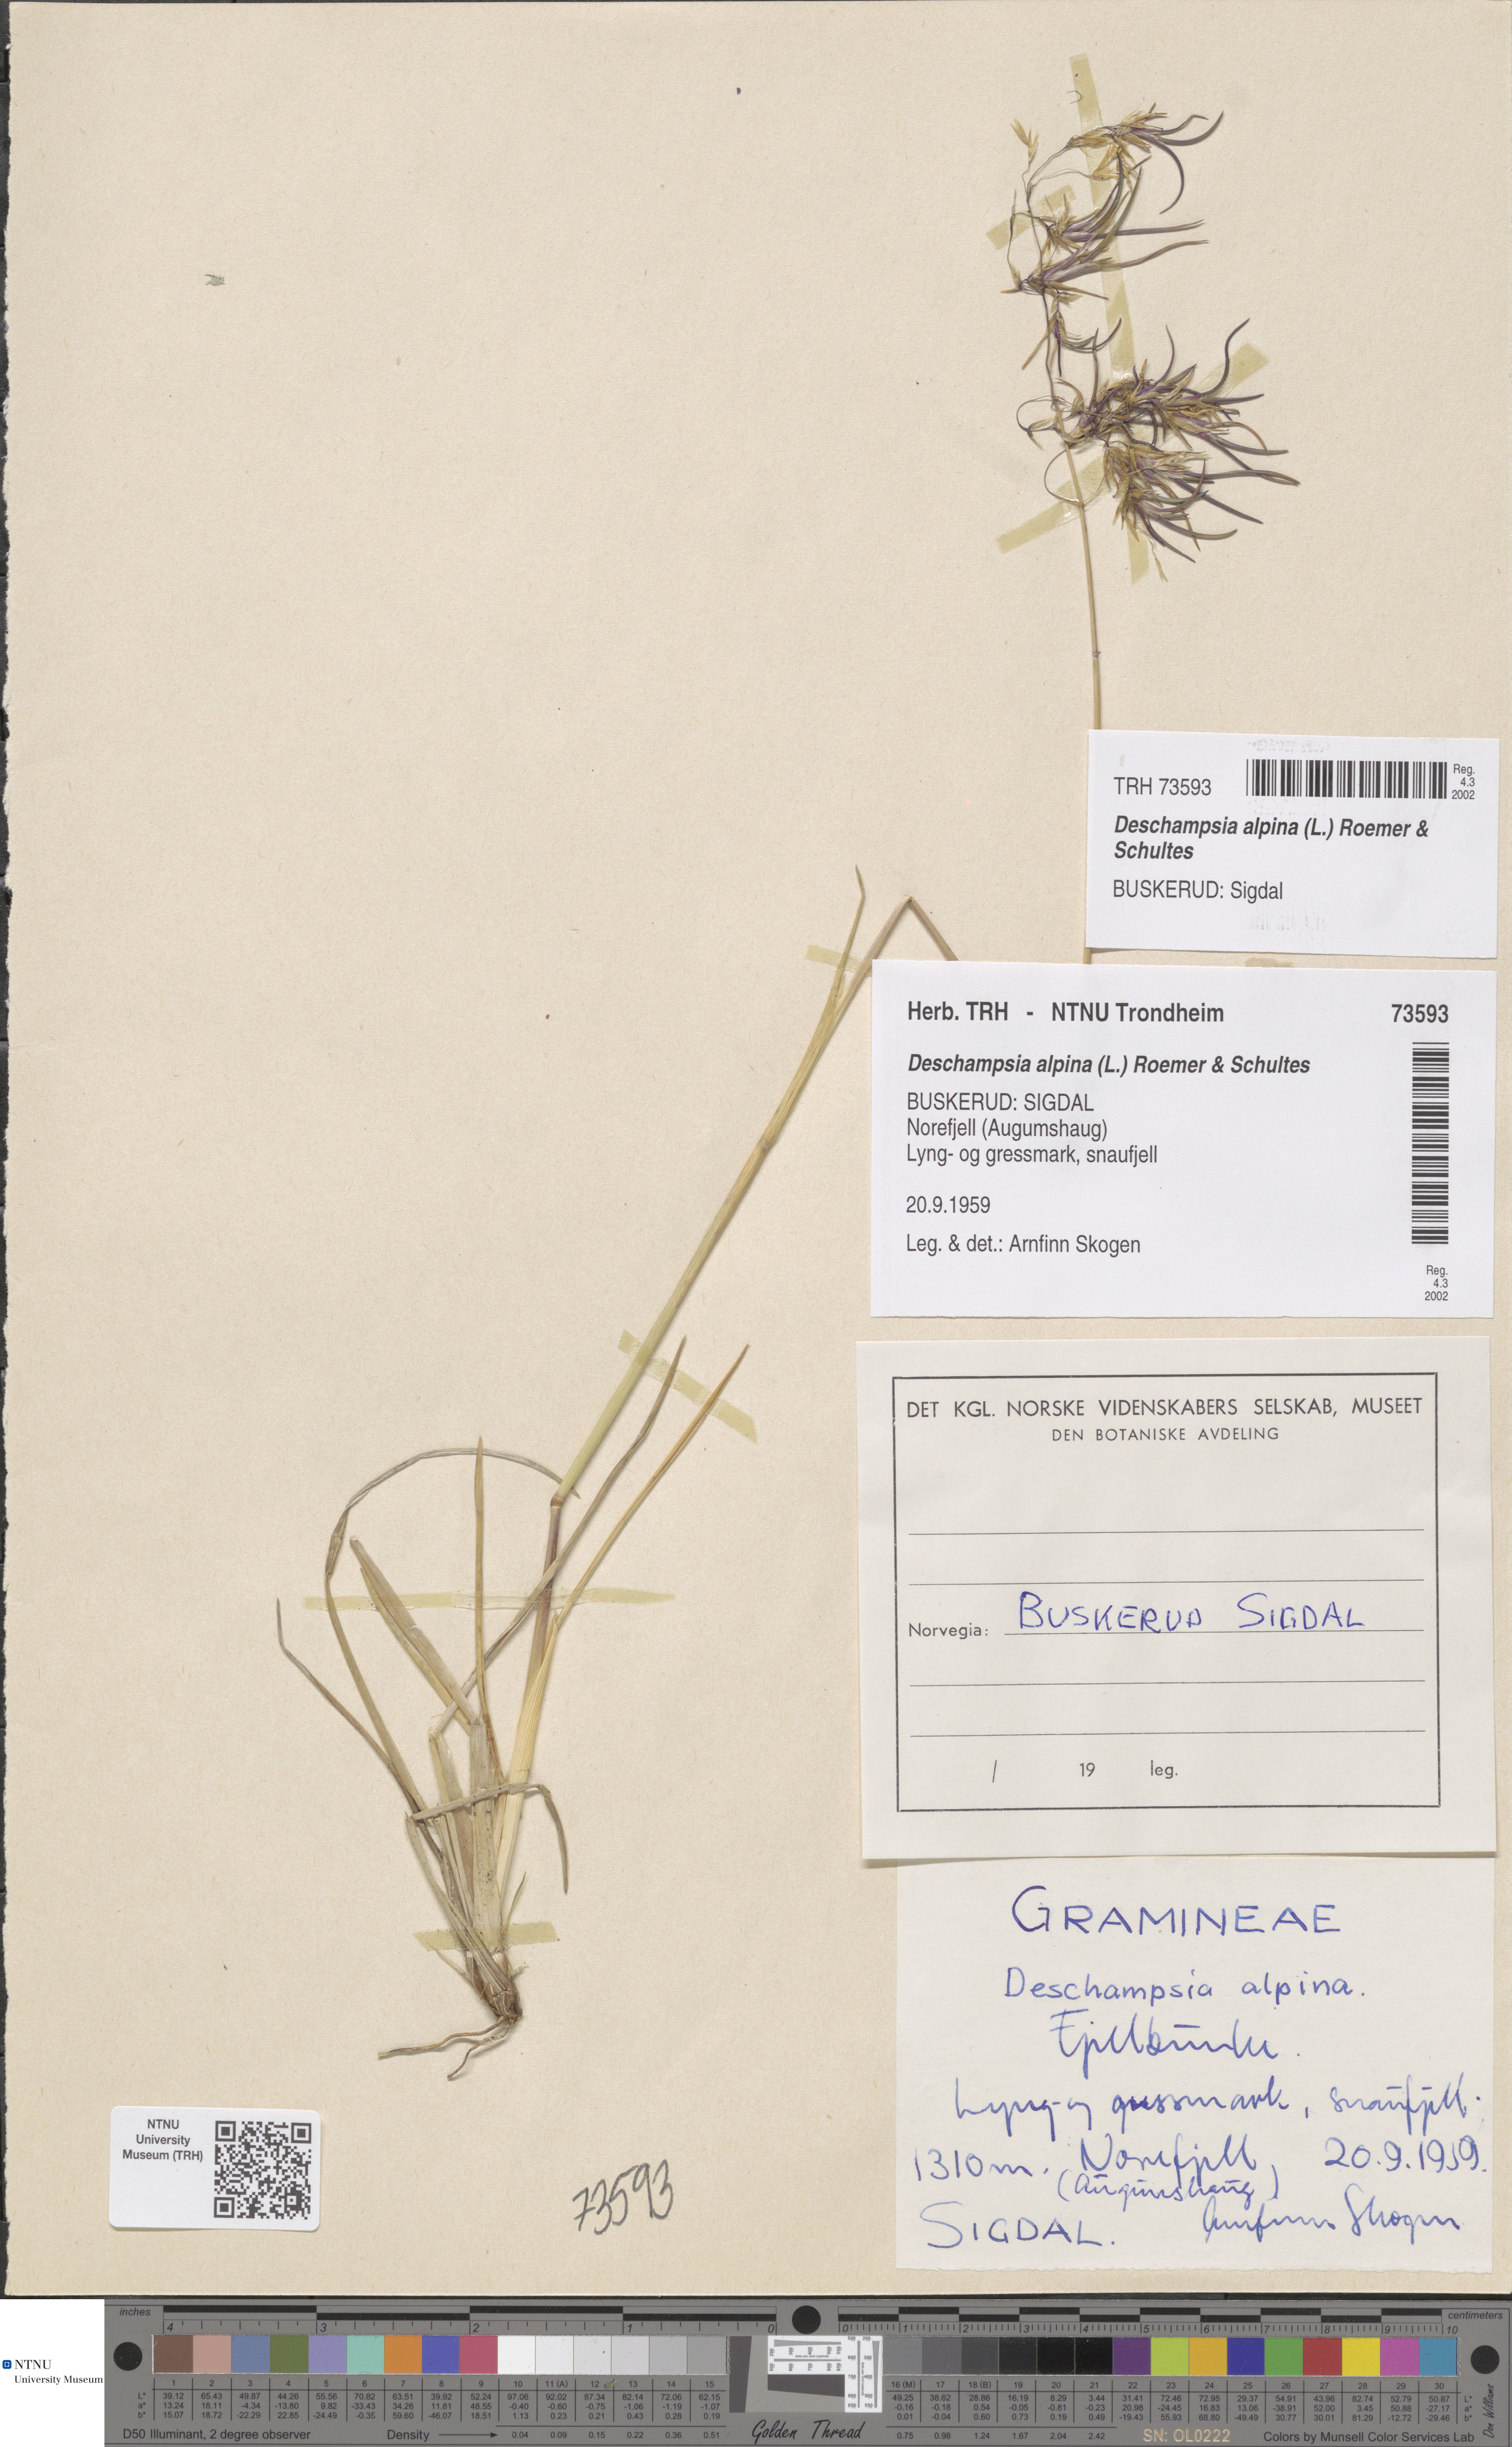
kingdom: Plantae
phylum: Tracheophyta
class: Liliopsida
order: Poales
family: Poaceae
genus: Deschampsia
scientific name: Deschampsia cespitosa
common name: Tufted hair-grass
